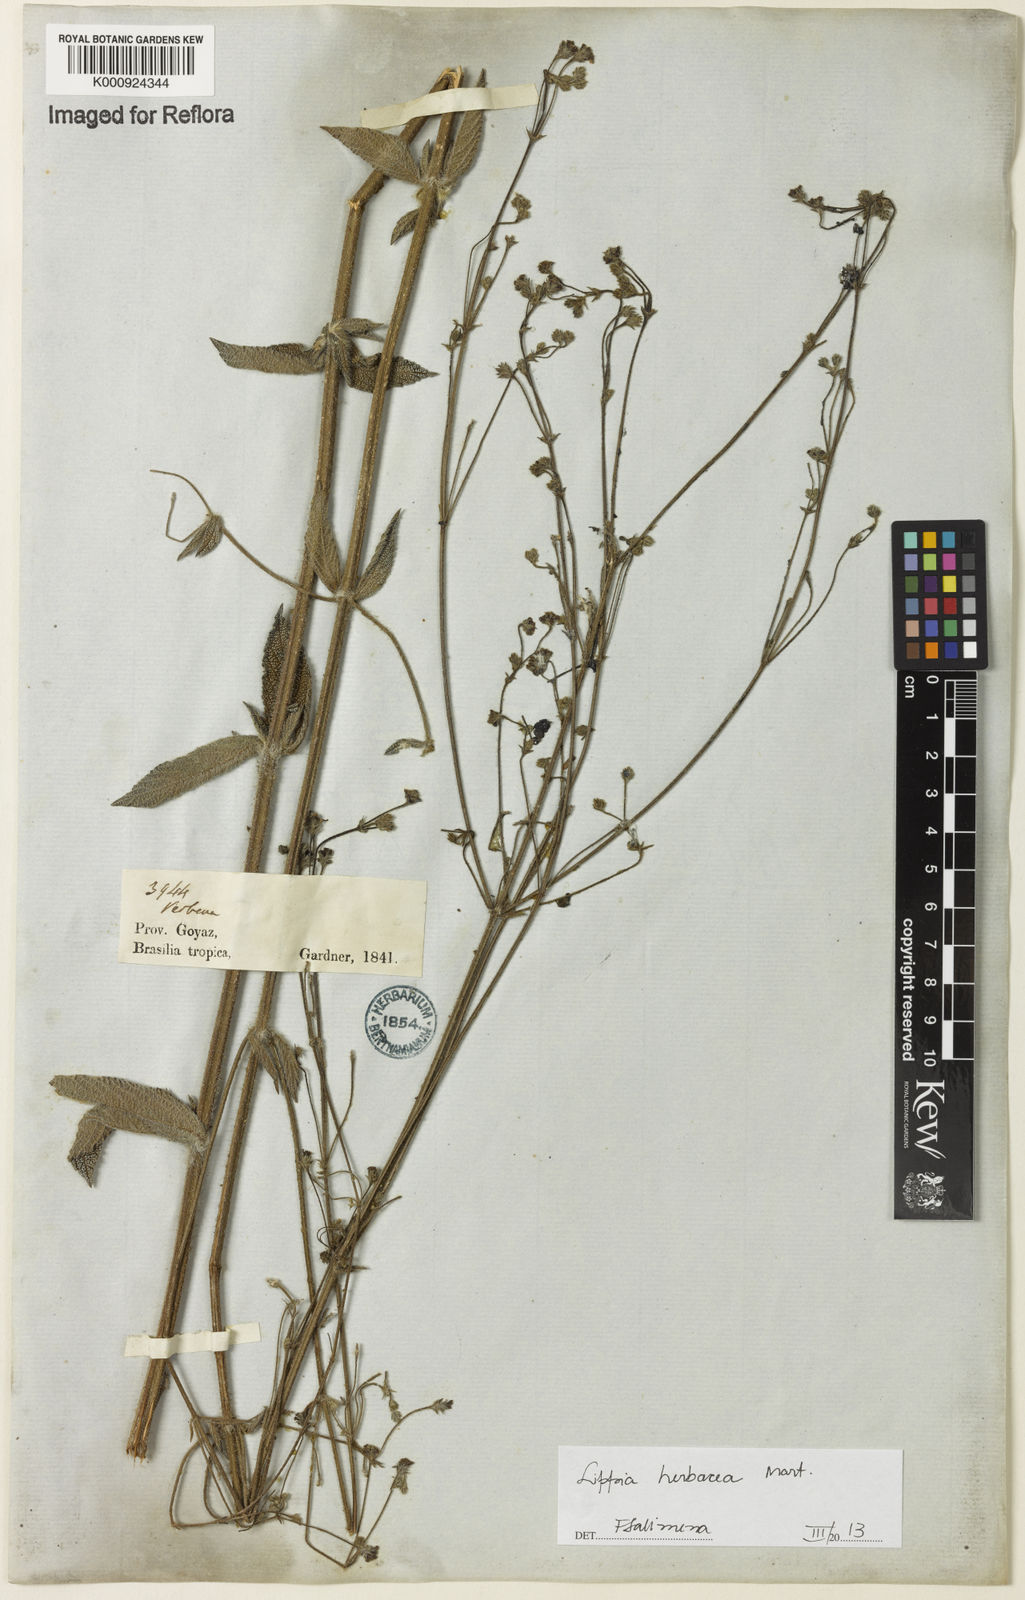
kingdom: Plantae
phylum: Tracheophyta
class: Magnoliopsida
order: Lamiales
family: Verbenaceae
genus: Lippia
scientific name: Lippia
